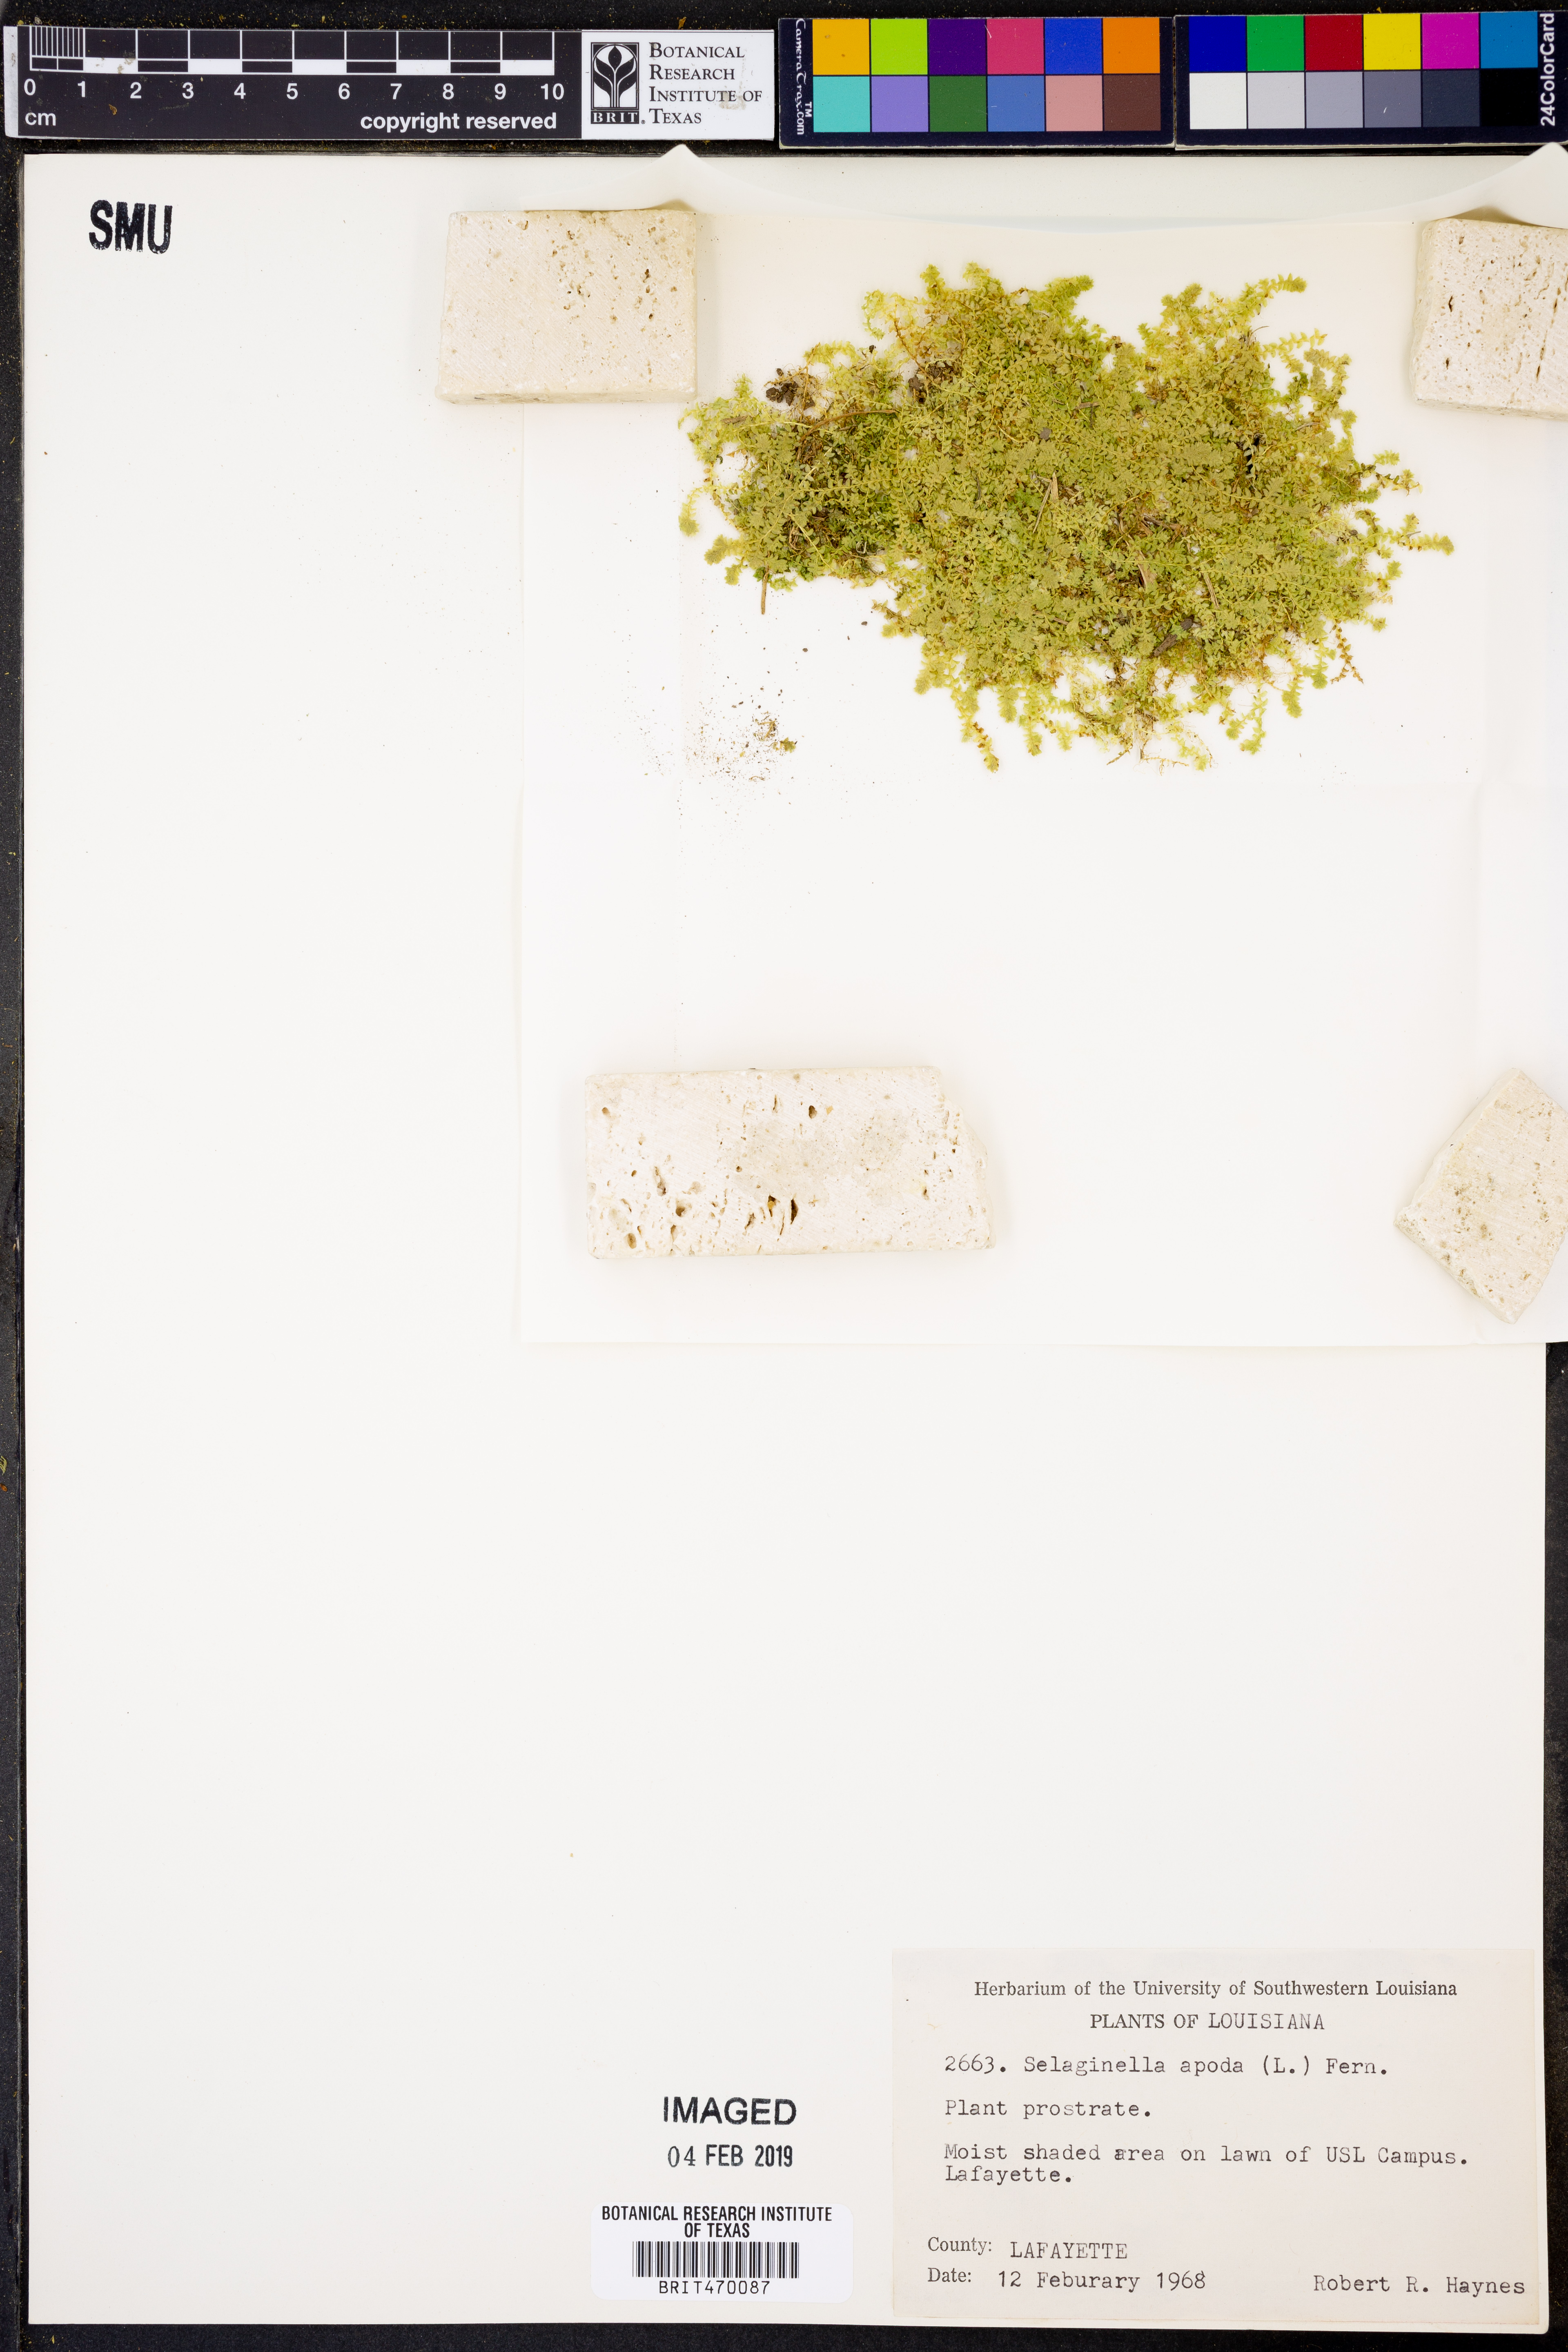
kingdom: Plantae
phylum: Tracheophyta
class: Lycopodiopsida
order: Selaginellales
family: Selaginellaceae
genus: Selaginella
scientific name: Selaginella apoda
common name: Creeping spikemoss
